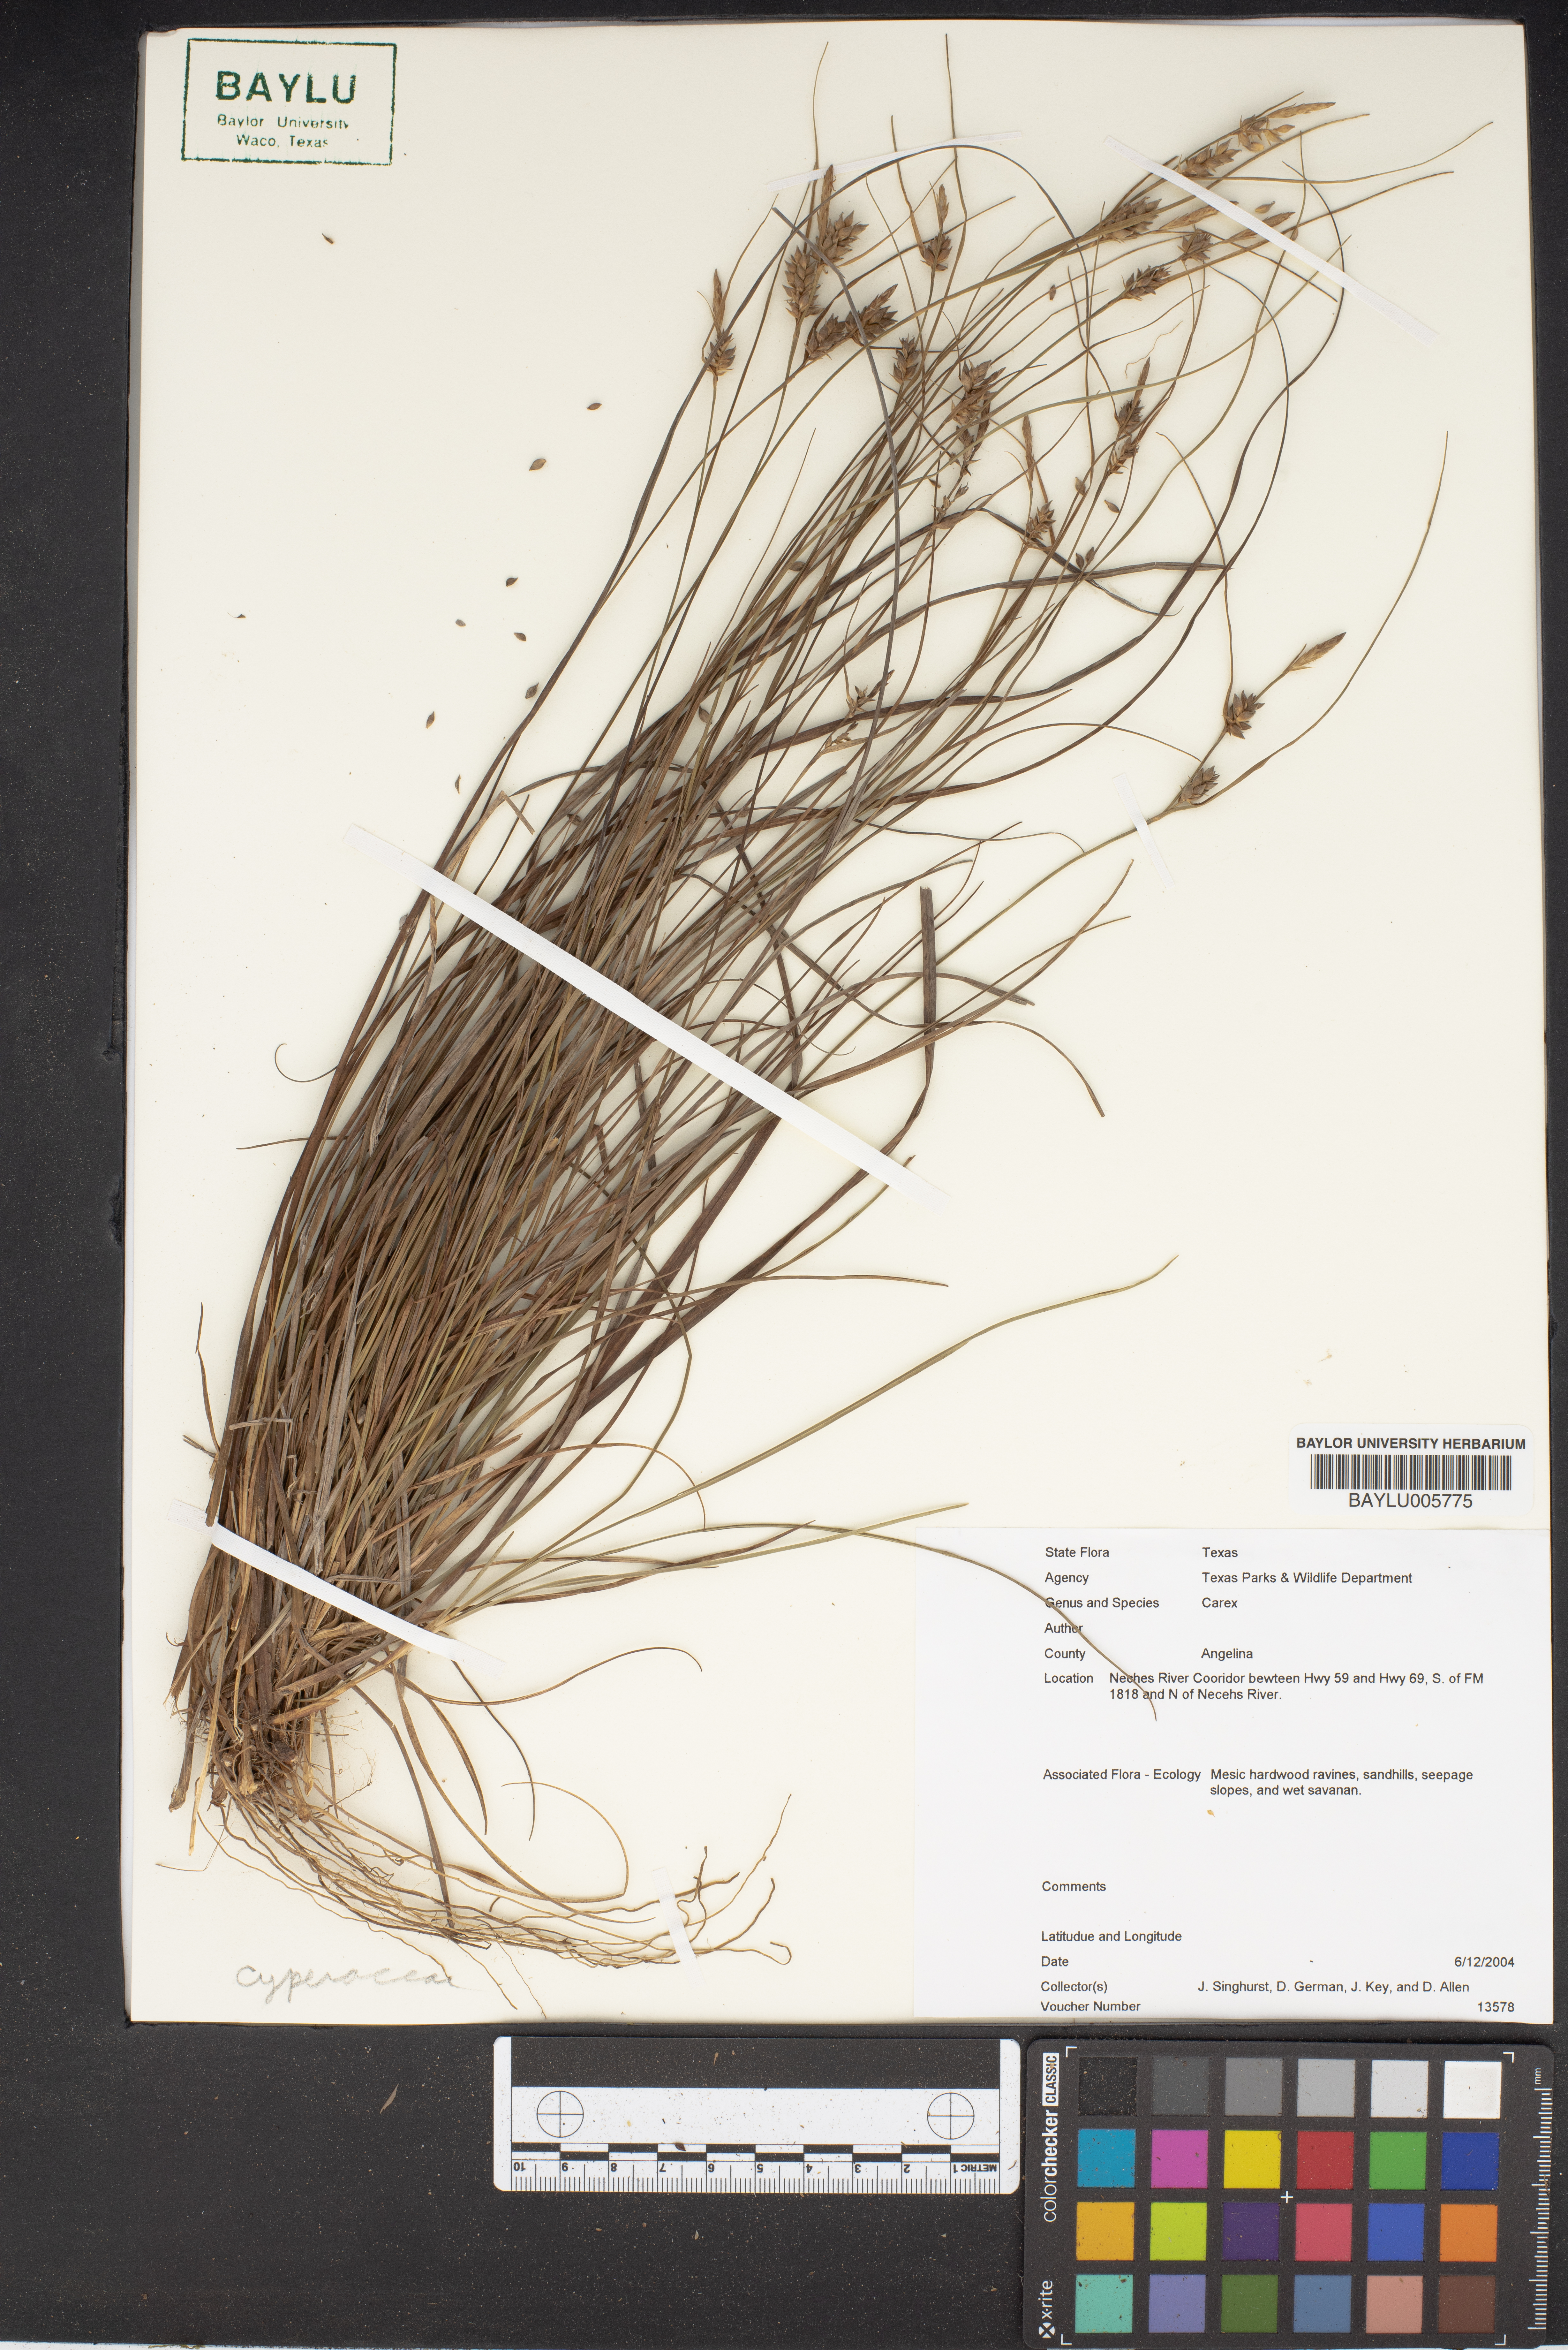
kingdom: Plantae
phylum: Tracheophyta
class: Liliopsida
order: Poales
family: Cyperaceae
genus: Carex
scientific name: Carex
